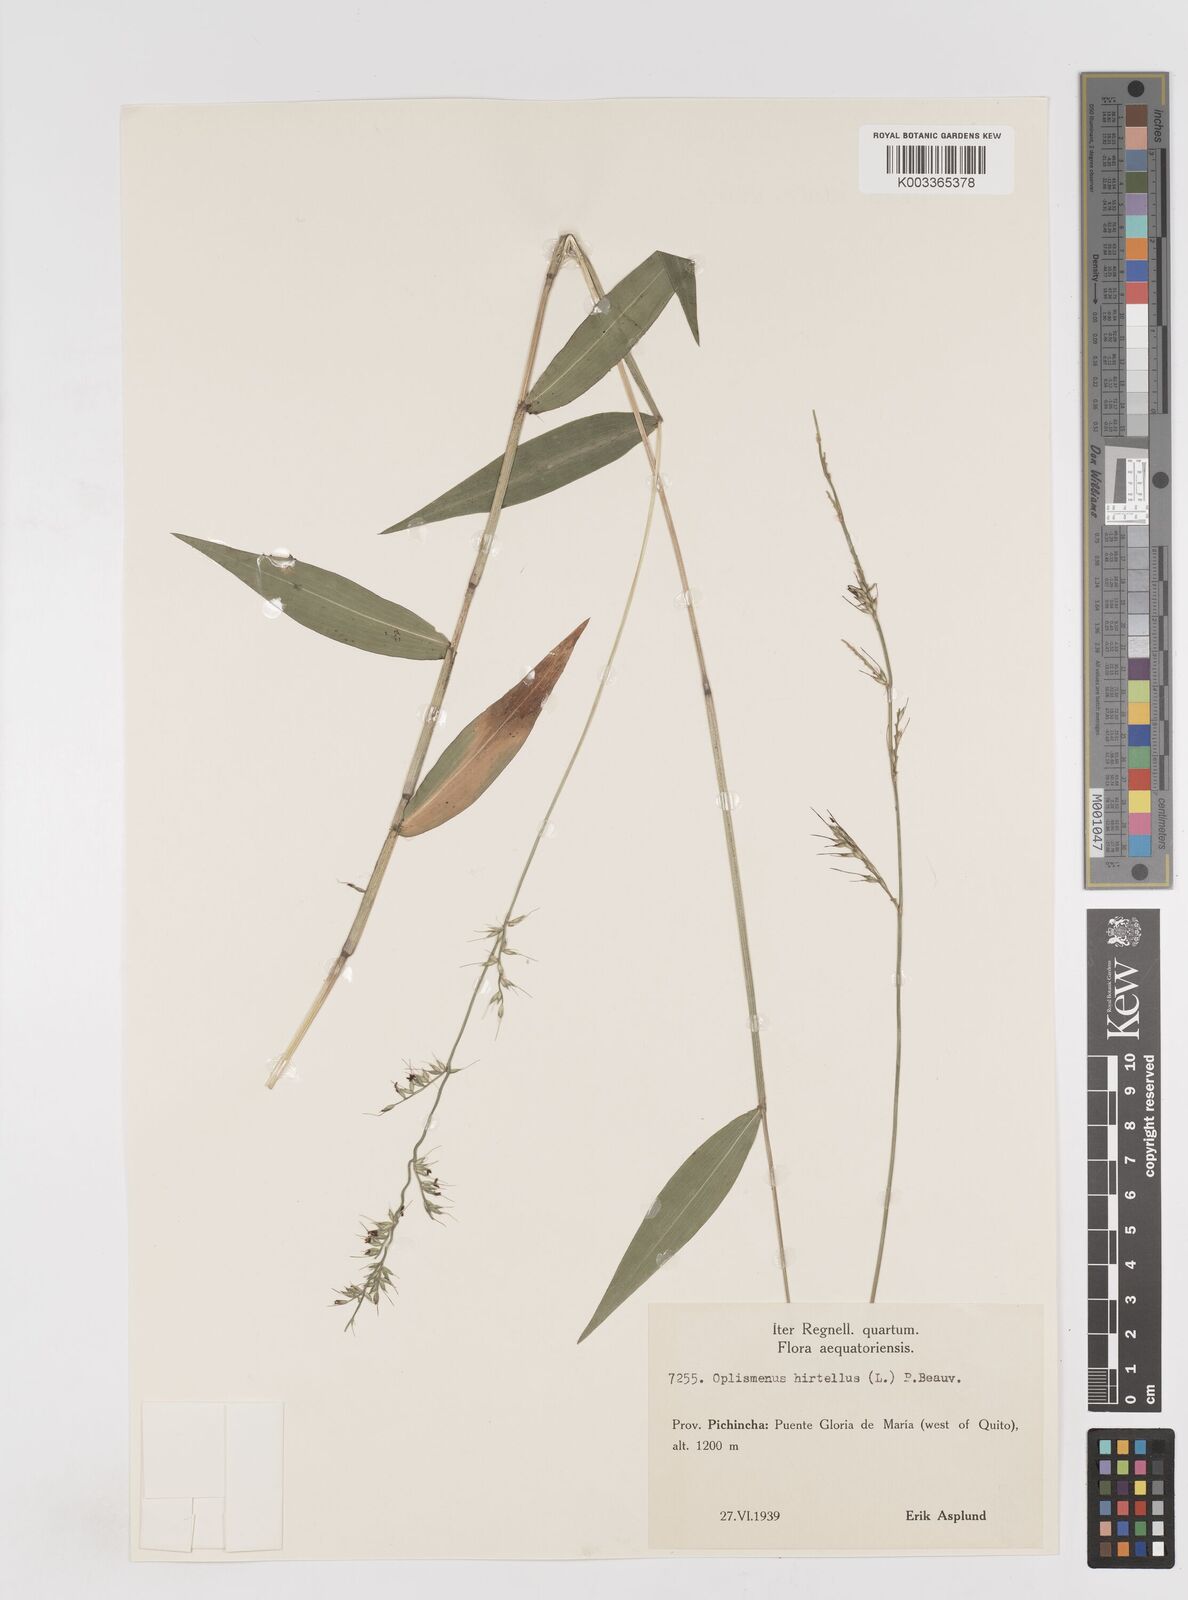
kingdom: Plantae
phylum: Tracheophyta
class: Liliopsida
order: Poales
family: Poaceae
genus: Oplismenus
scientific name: Oplismenus compositus
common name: Running mountain grass
